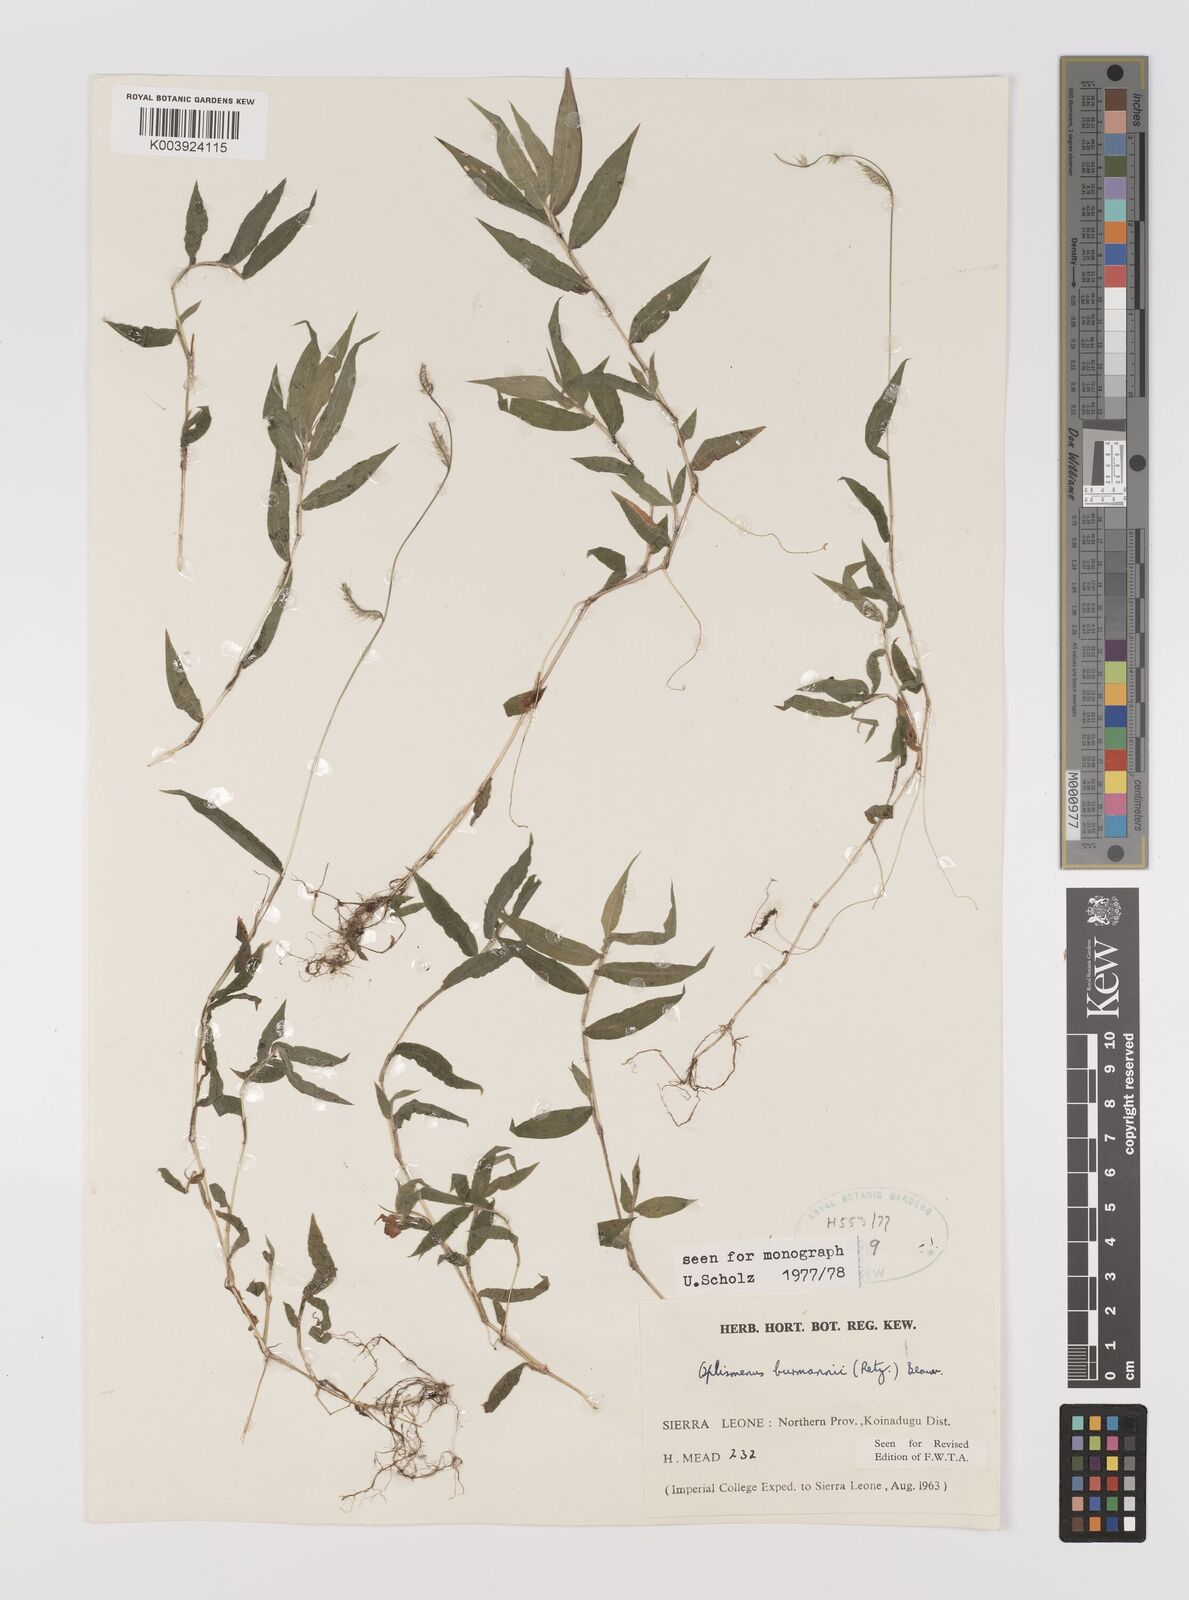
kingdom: Plantae
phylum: Tracheophyta
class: Liliopsida
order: Poales
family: Poaceae
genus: Oplismenus
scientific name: Oplismenus burmanni
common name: Burmann's basketgrass
